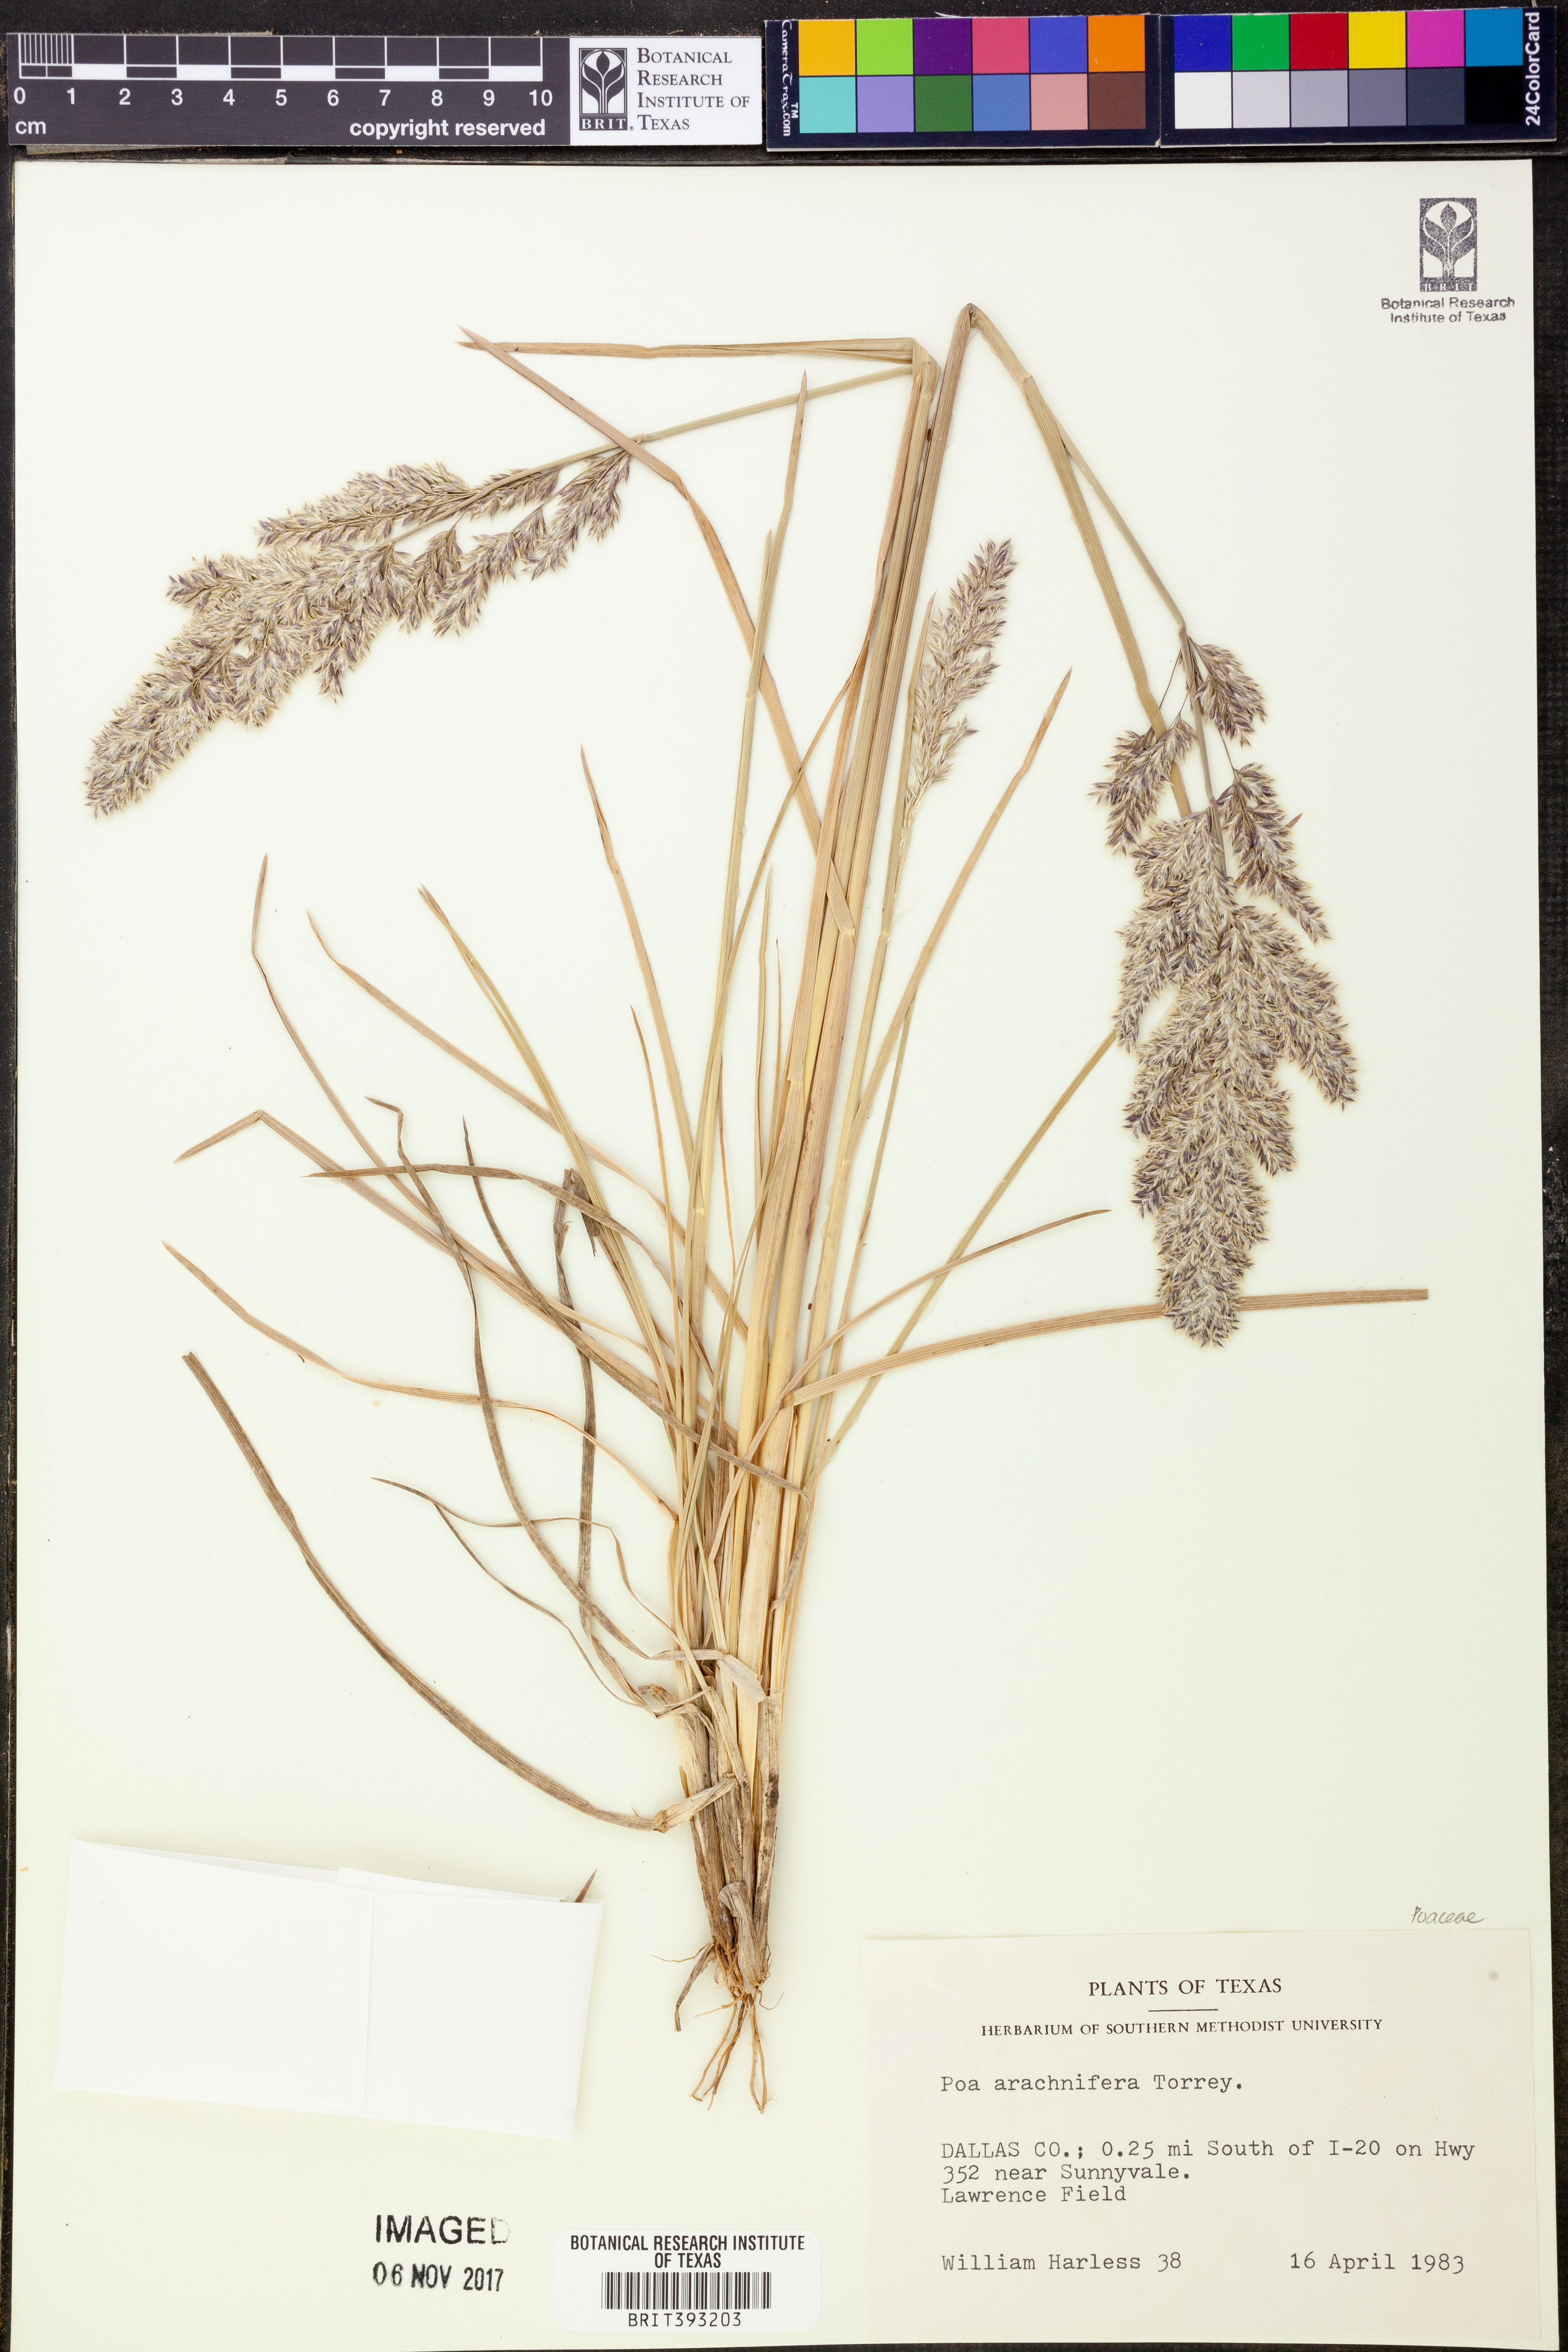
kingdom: Plantae
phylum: Tracheophyta
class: Liliopsida
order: Poales
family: Poaceae
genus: Poa
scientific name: Poa arachnifera
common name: Texas bluegrass
